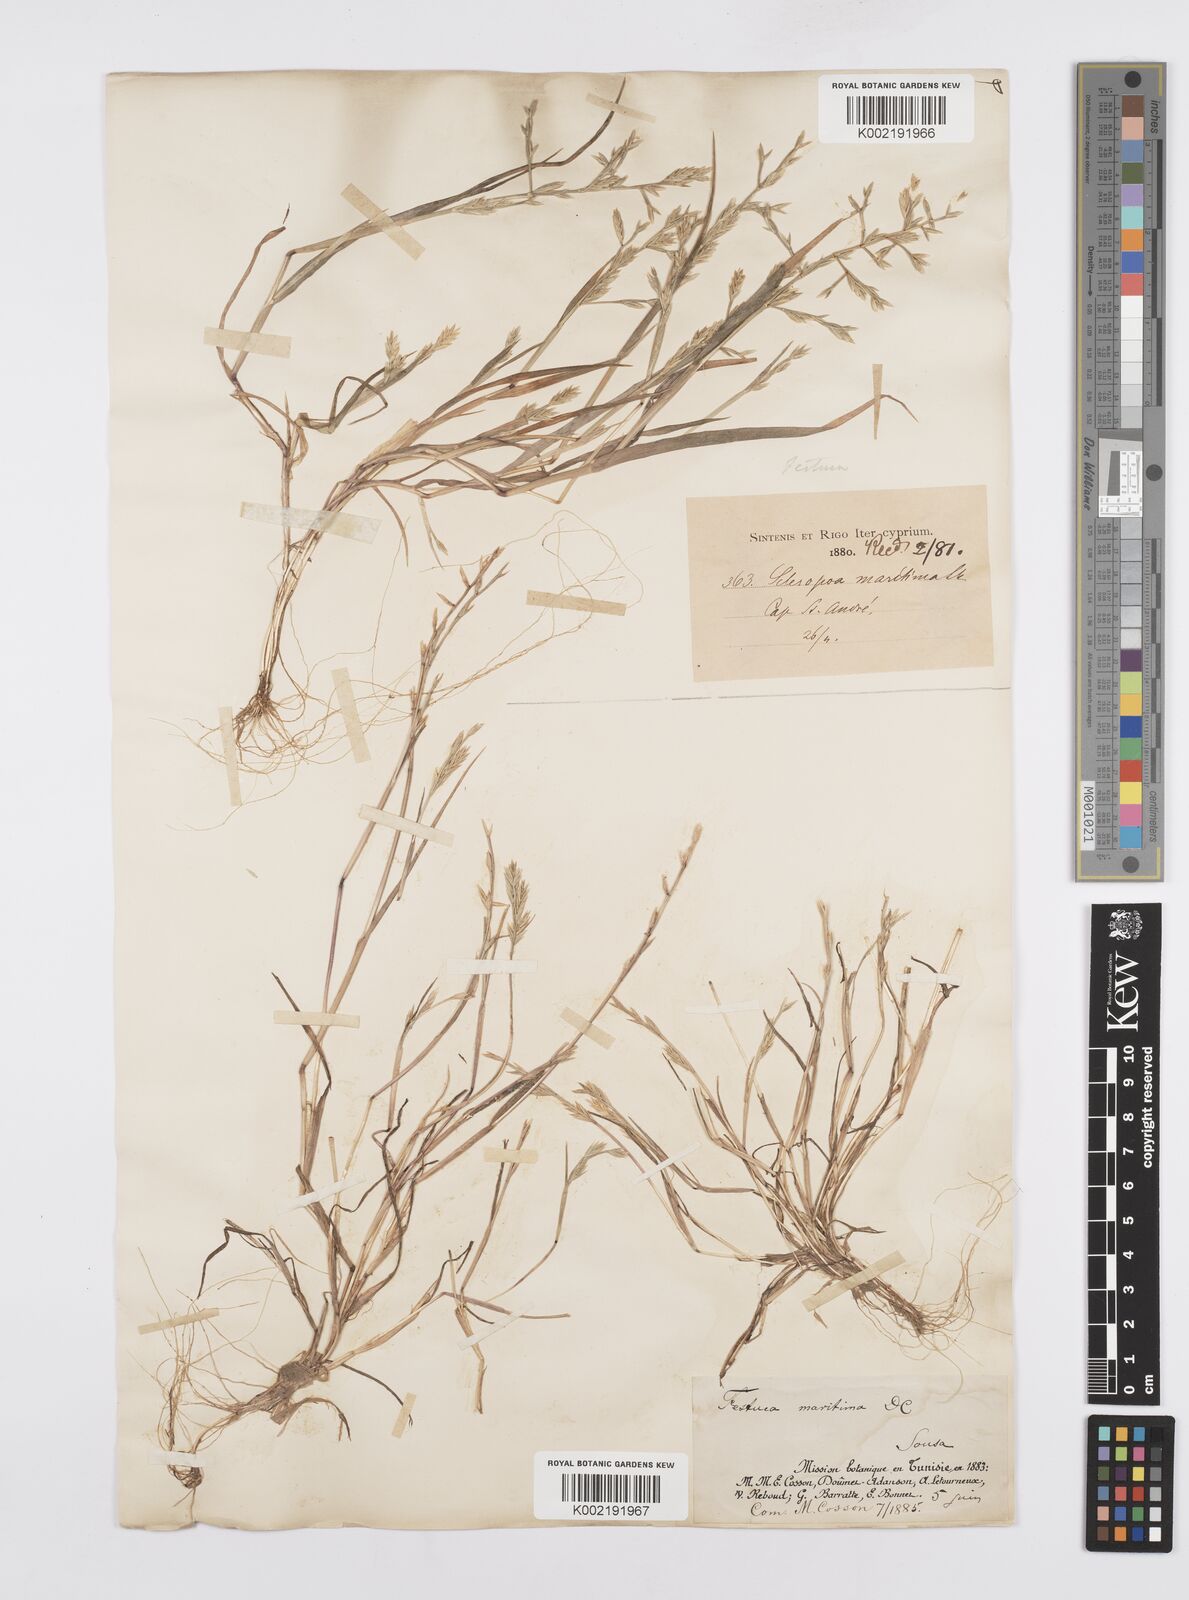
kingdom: Plantae
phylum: Tracheophyta
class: Liliopsida
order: Poales
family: Poaceae
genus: Cutandia
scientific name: Cutandia maritima
